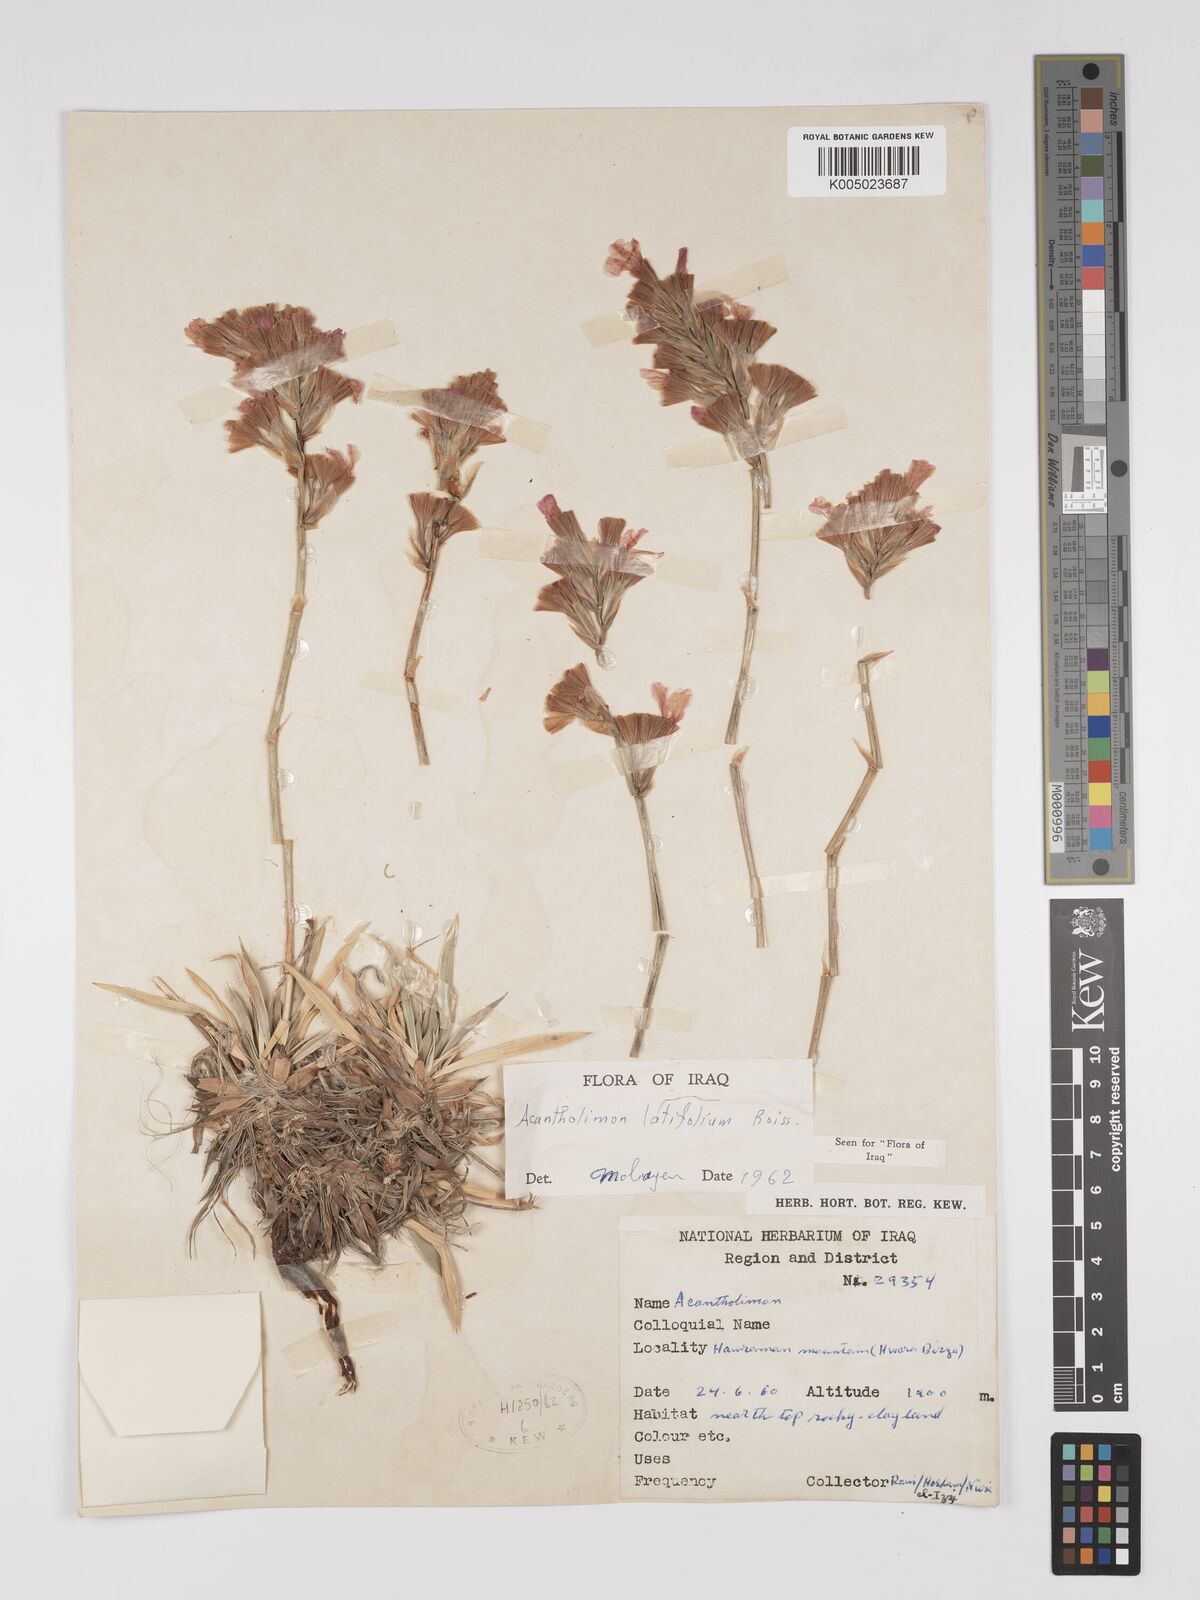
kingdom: Plantae
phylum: Tracheophyta
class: Magnoliopsida
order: Caryophyllales
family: Plumbaginaceae
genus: Acantholimon
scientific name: Acantholimon
